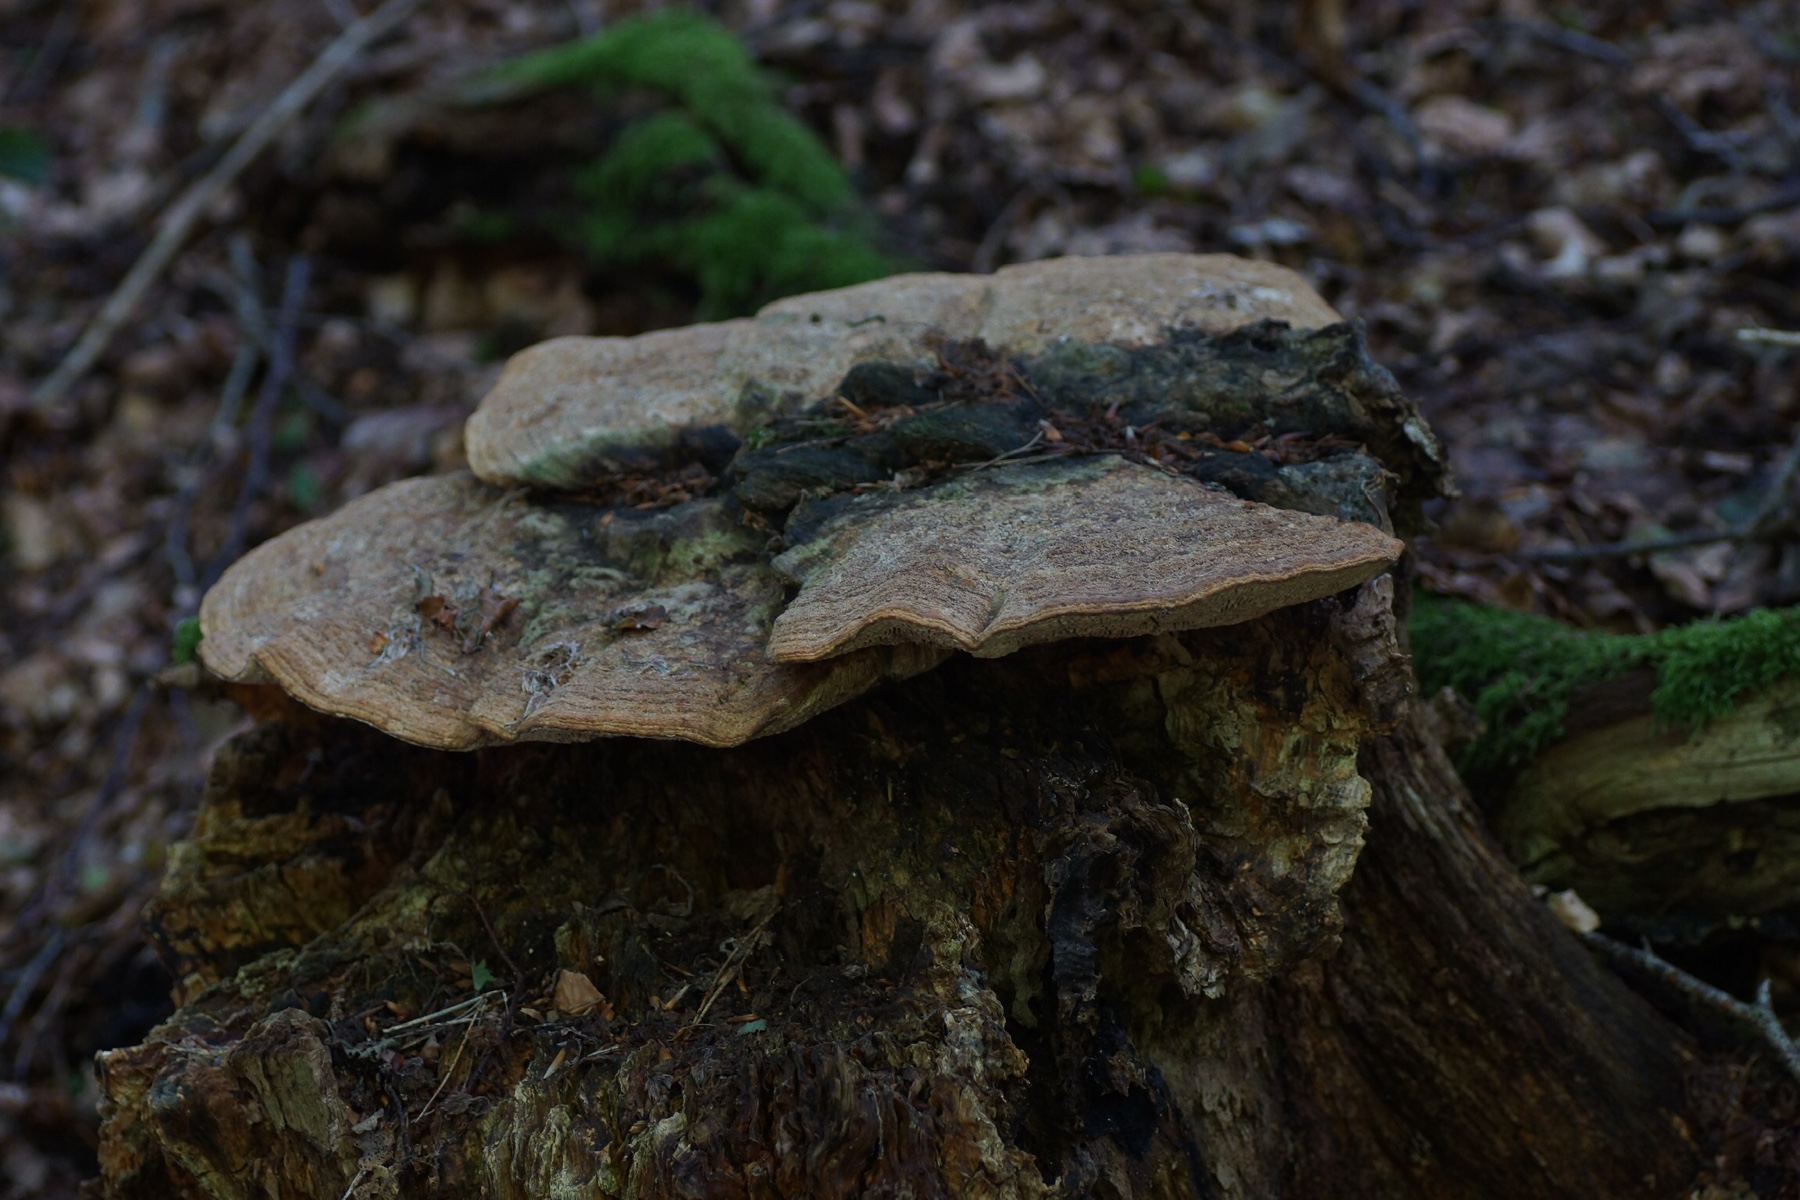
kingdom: Fungi
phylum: Basidiomycota
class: Agaricomycetes
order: Polyporales
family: Fomitopsidaceae
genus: Daedalea
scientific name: Daedalea quercina
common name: ege-labyrintsvamp
